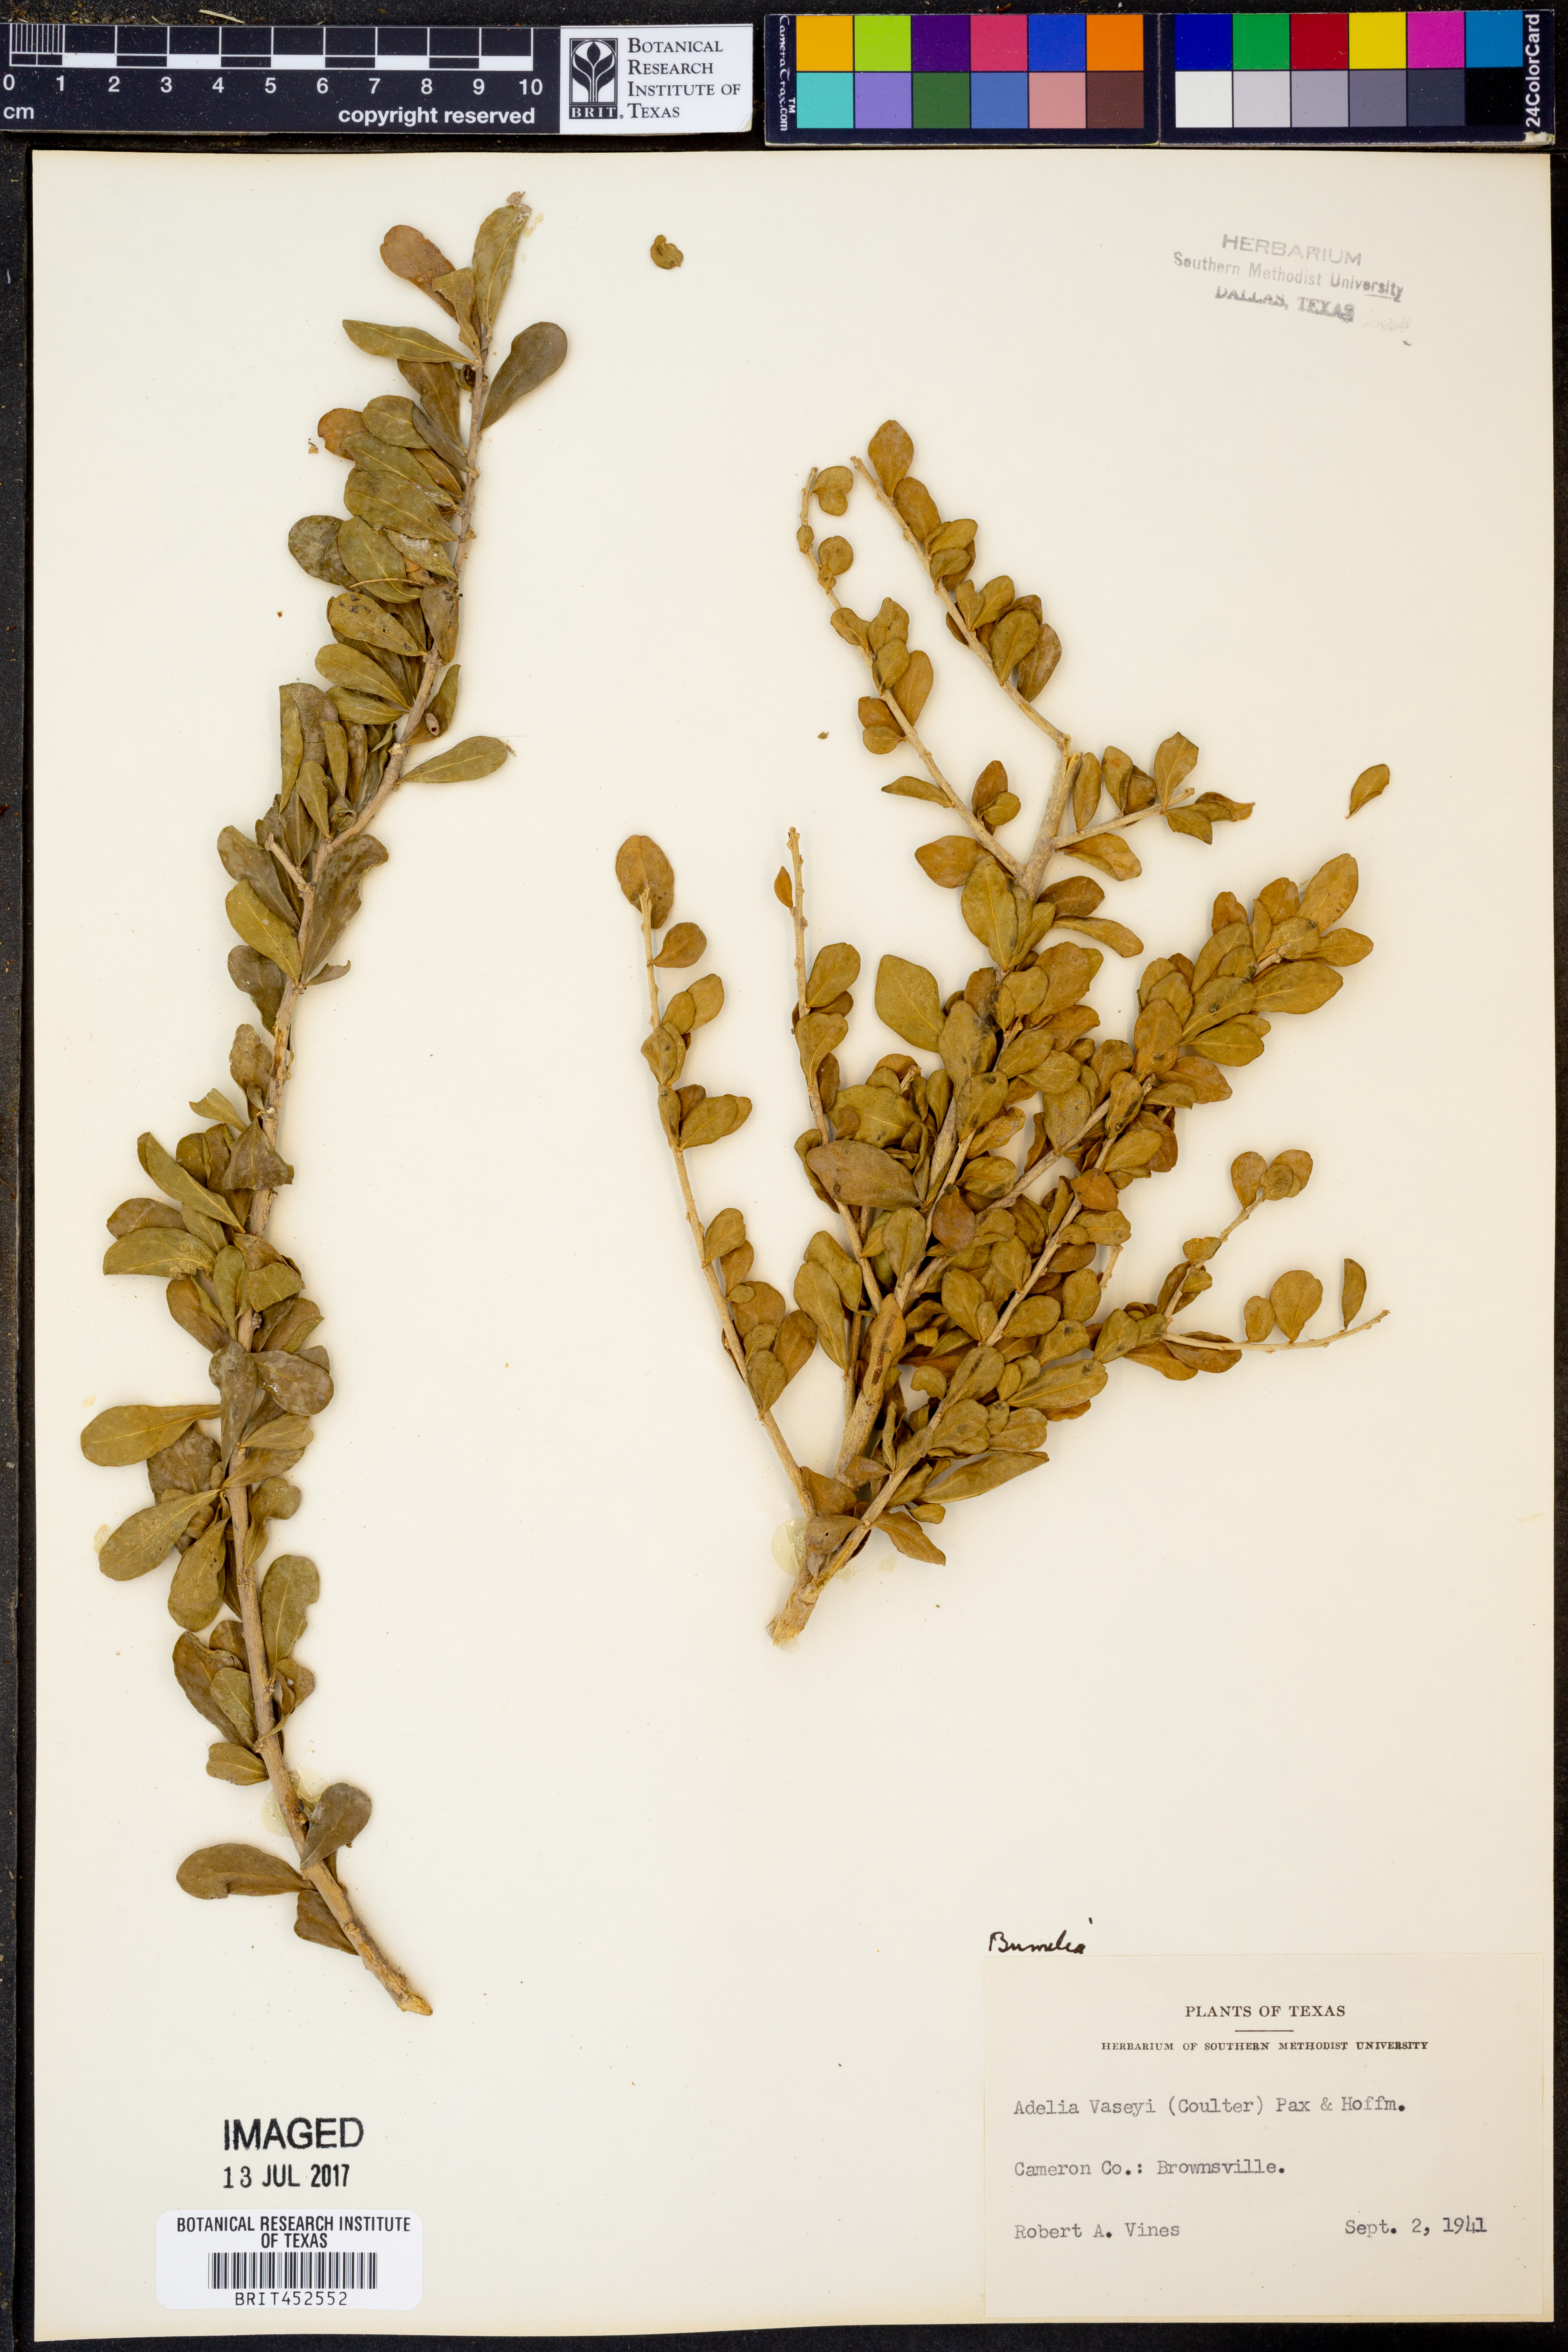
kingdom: Plantae
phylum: Tracheophyta
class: Magnoliopsida
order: Ericales
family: Sapotaceae
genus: Sideroxylon
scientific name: Sideroxylon
